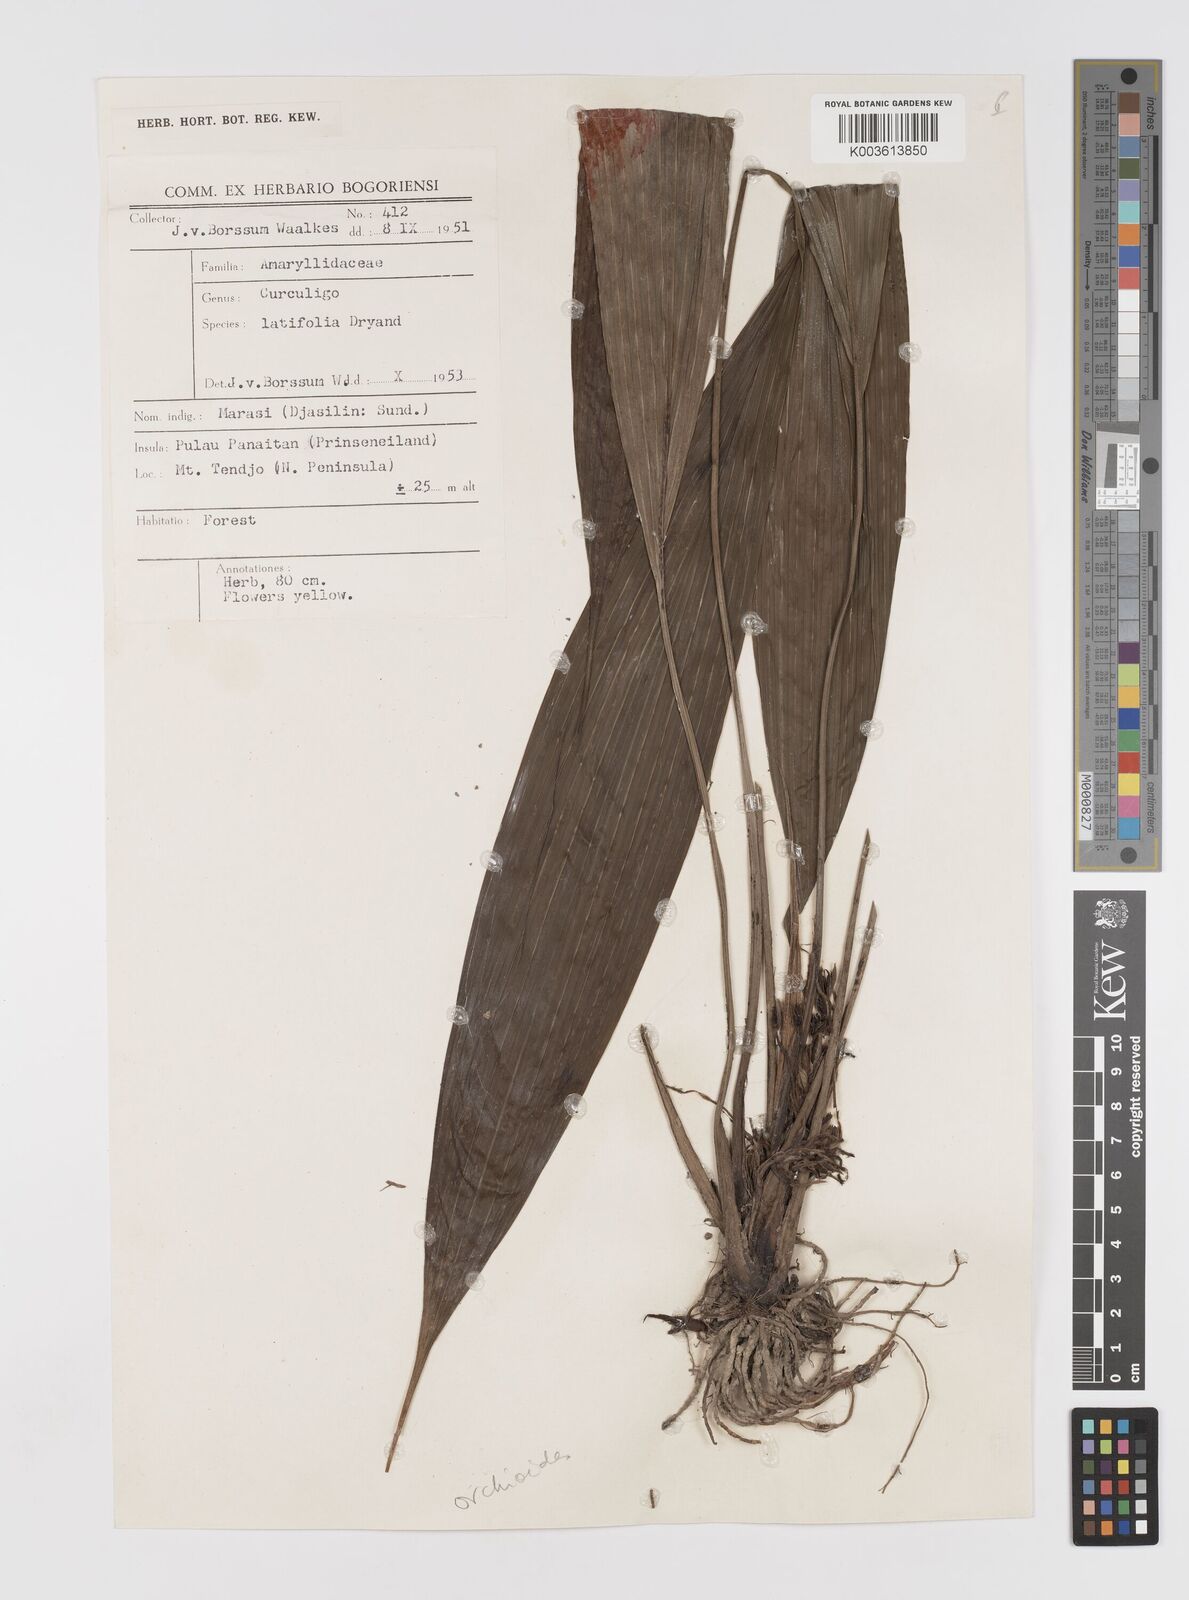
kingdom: Plantae
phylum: Tracheophyta
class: Liliopsida
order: Asparagales
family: Hypoxidaceae
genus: Curculigo
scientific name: Curculigo capitulata
